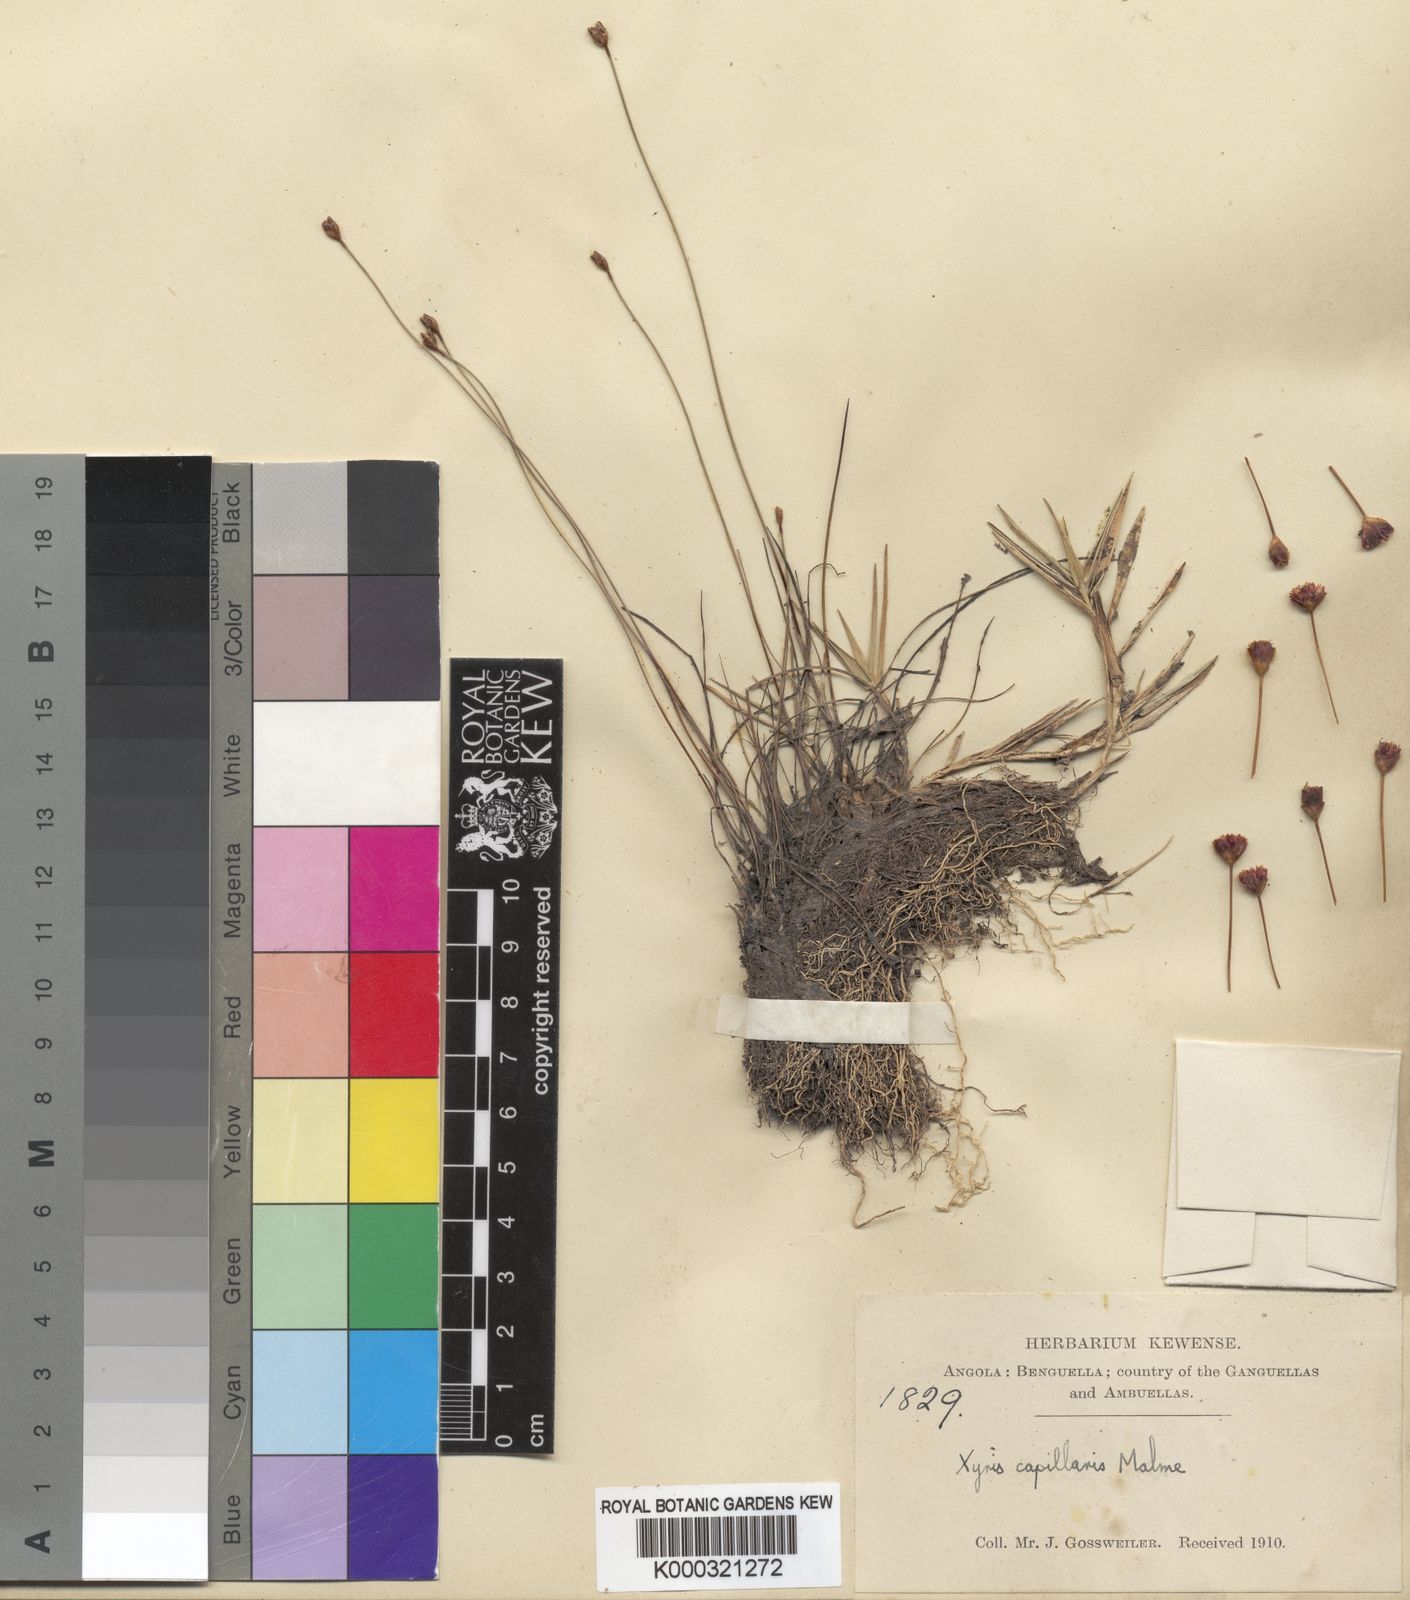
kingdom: Plantae
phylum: Tracheophyta
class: Liliopsida
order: Poales
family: Xyridaceae
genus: Xyris
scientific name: Xyris capillaris
